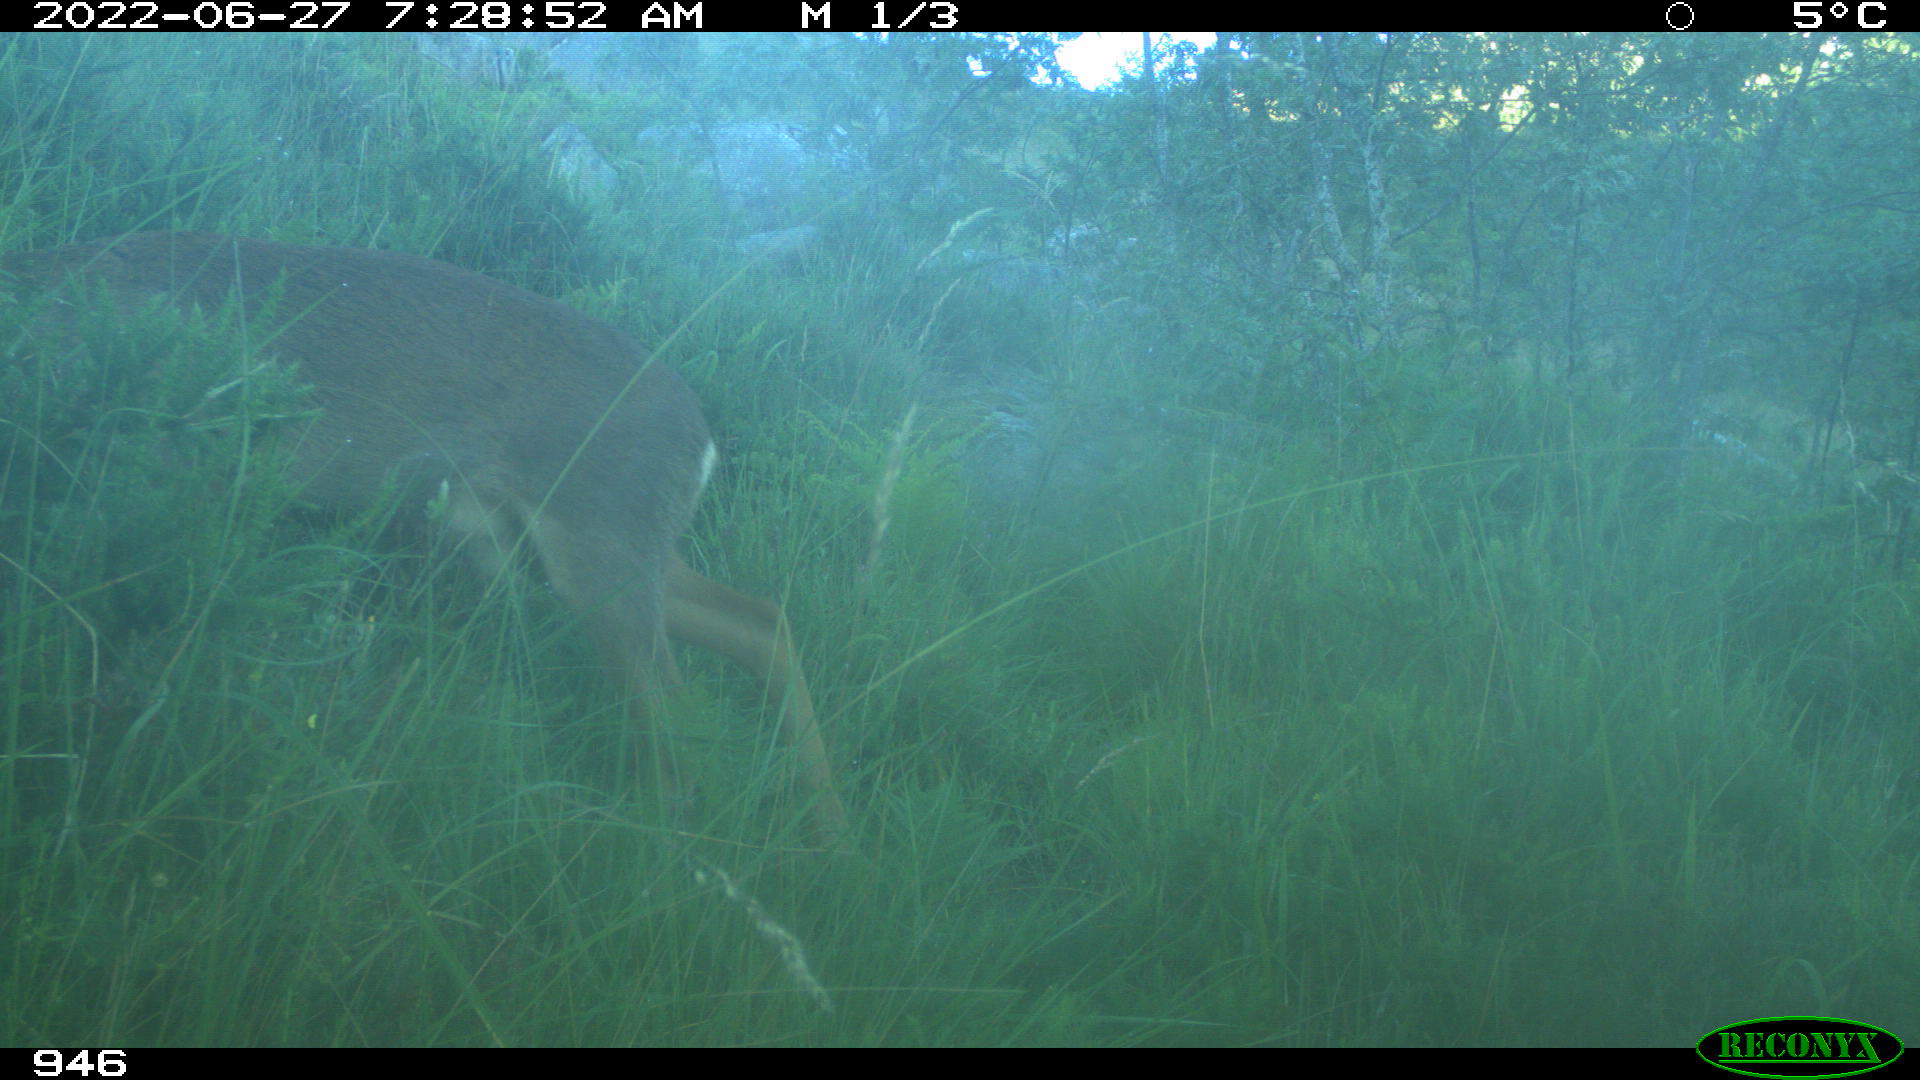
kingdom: Animalia
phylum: Chordata
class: Mammalia
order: Artiodactyla
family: Cervidae
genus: Capreolus
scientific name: Capreolus capreolus
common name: Western roe deer
